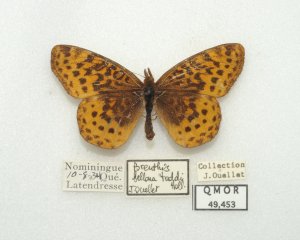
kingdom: Animalia
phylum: Arthropoda
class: Insecta
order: Lepidoptera
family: Nymphalidae
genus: Clossiana
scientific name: Clossiana toddi
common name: Meadow Fritillary
